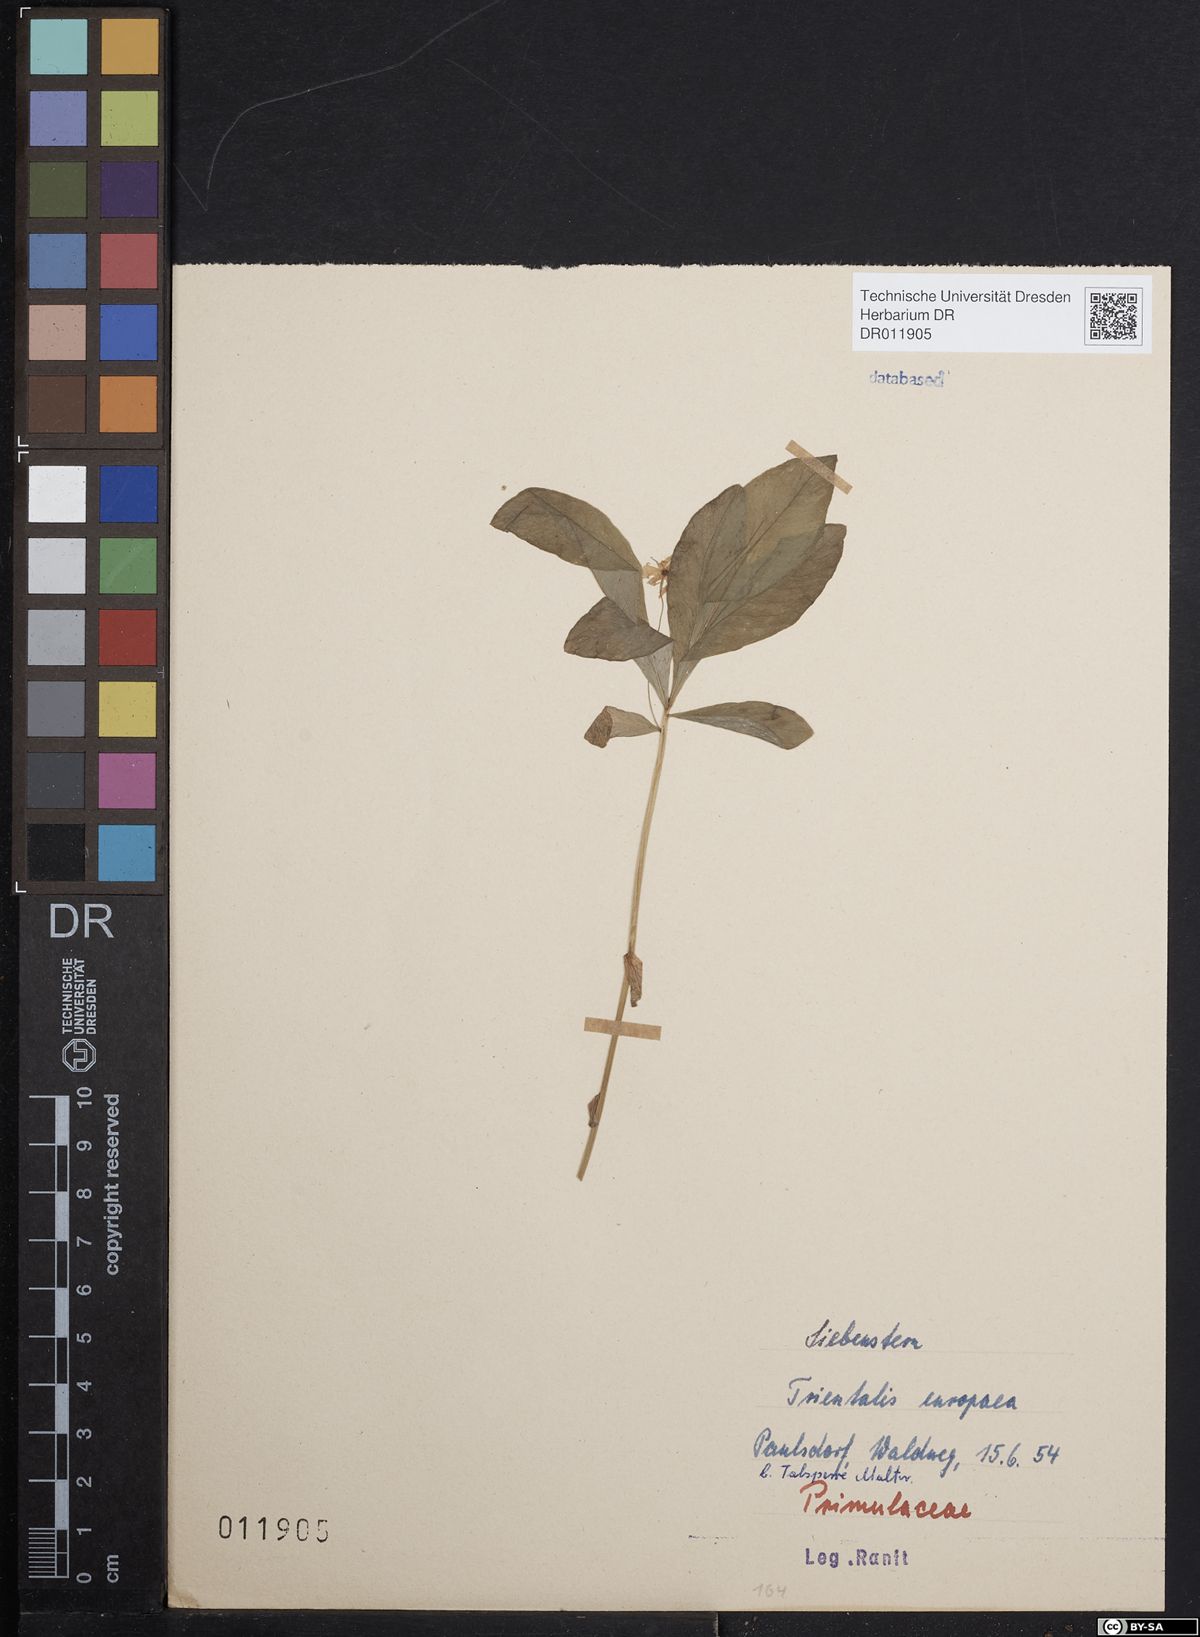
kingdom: Plantae
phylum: Tracheophyta
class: Magnoliopsida
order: Ericales
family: Primulaceae
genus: Lysimachia
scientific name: Lysimachia europaea
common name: Arctic starflower
